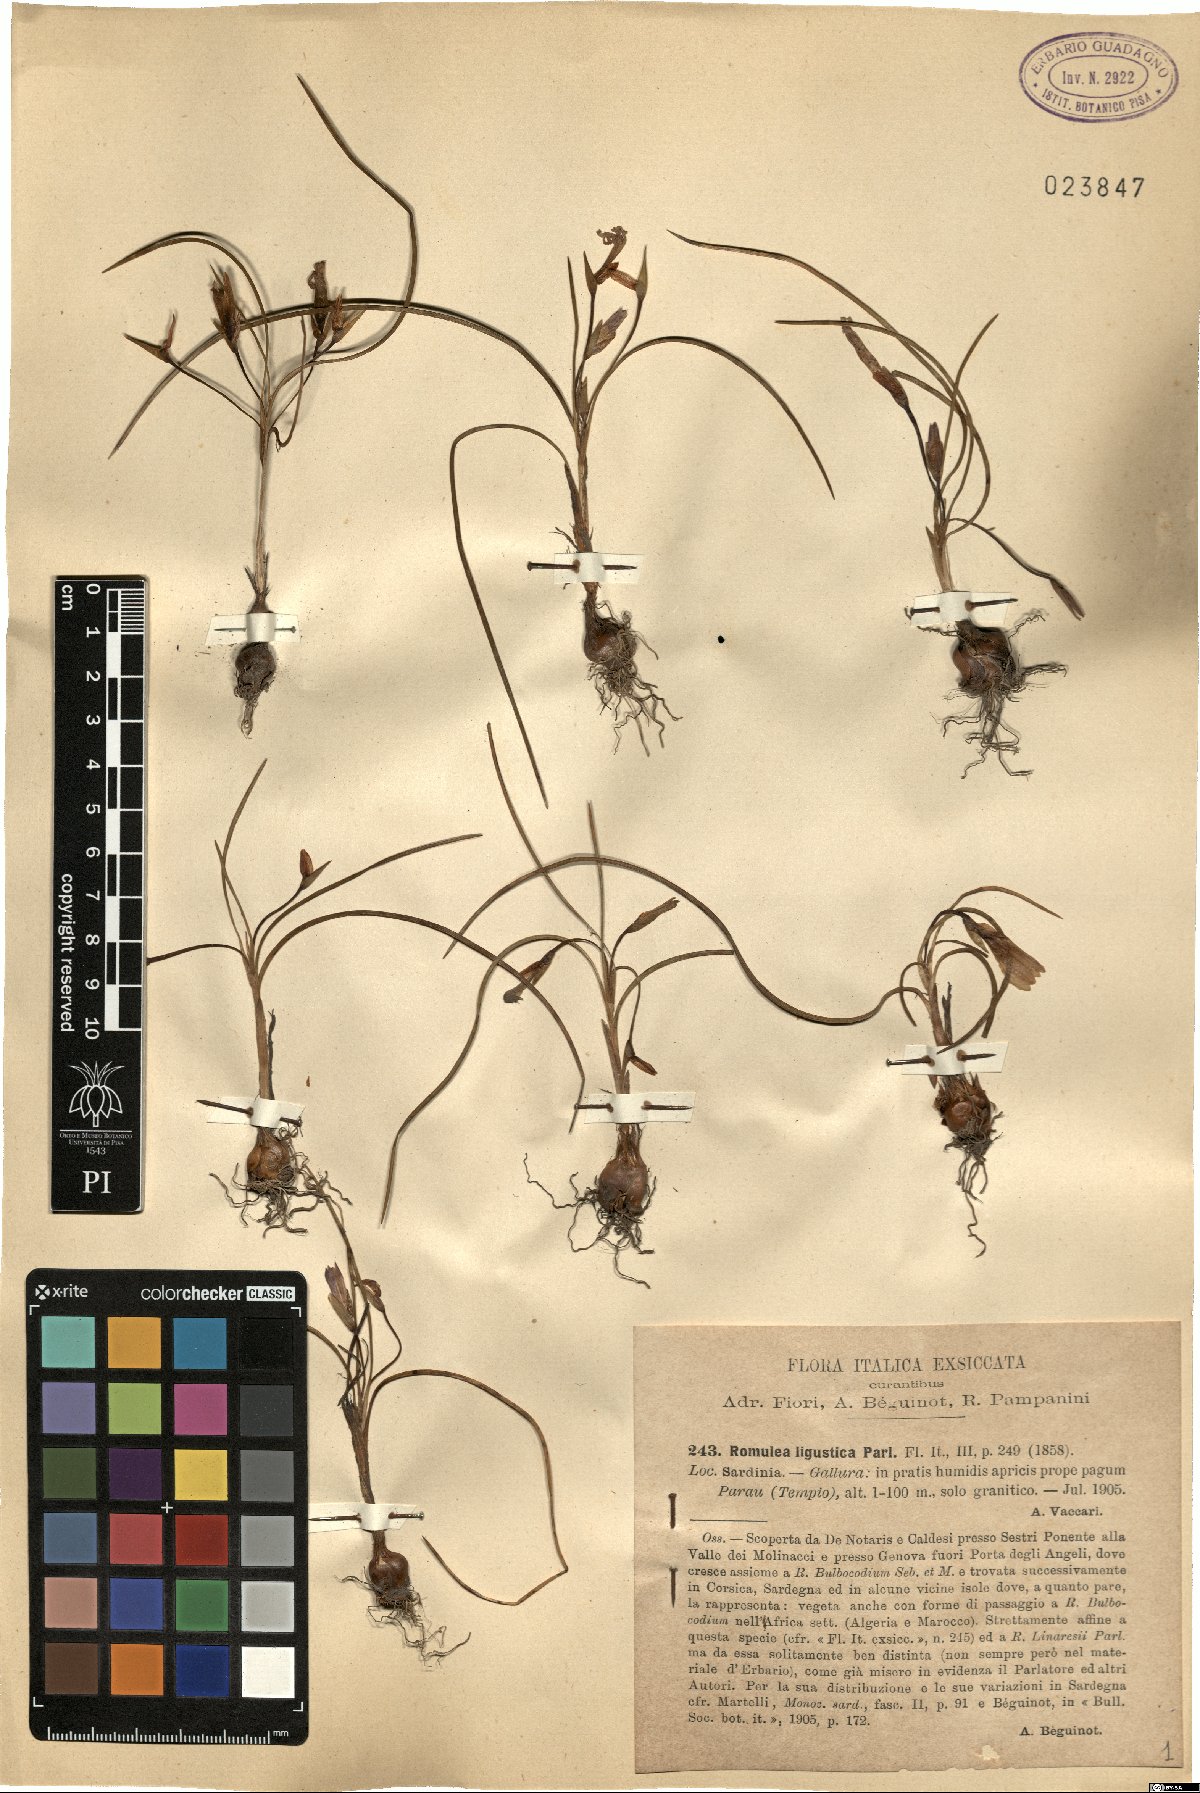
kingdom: Plantae
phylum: Tracheophyta
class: Liliopsida
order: Asparagales
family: Iridaceae
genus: Romulea
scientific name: Romulea ligustica
